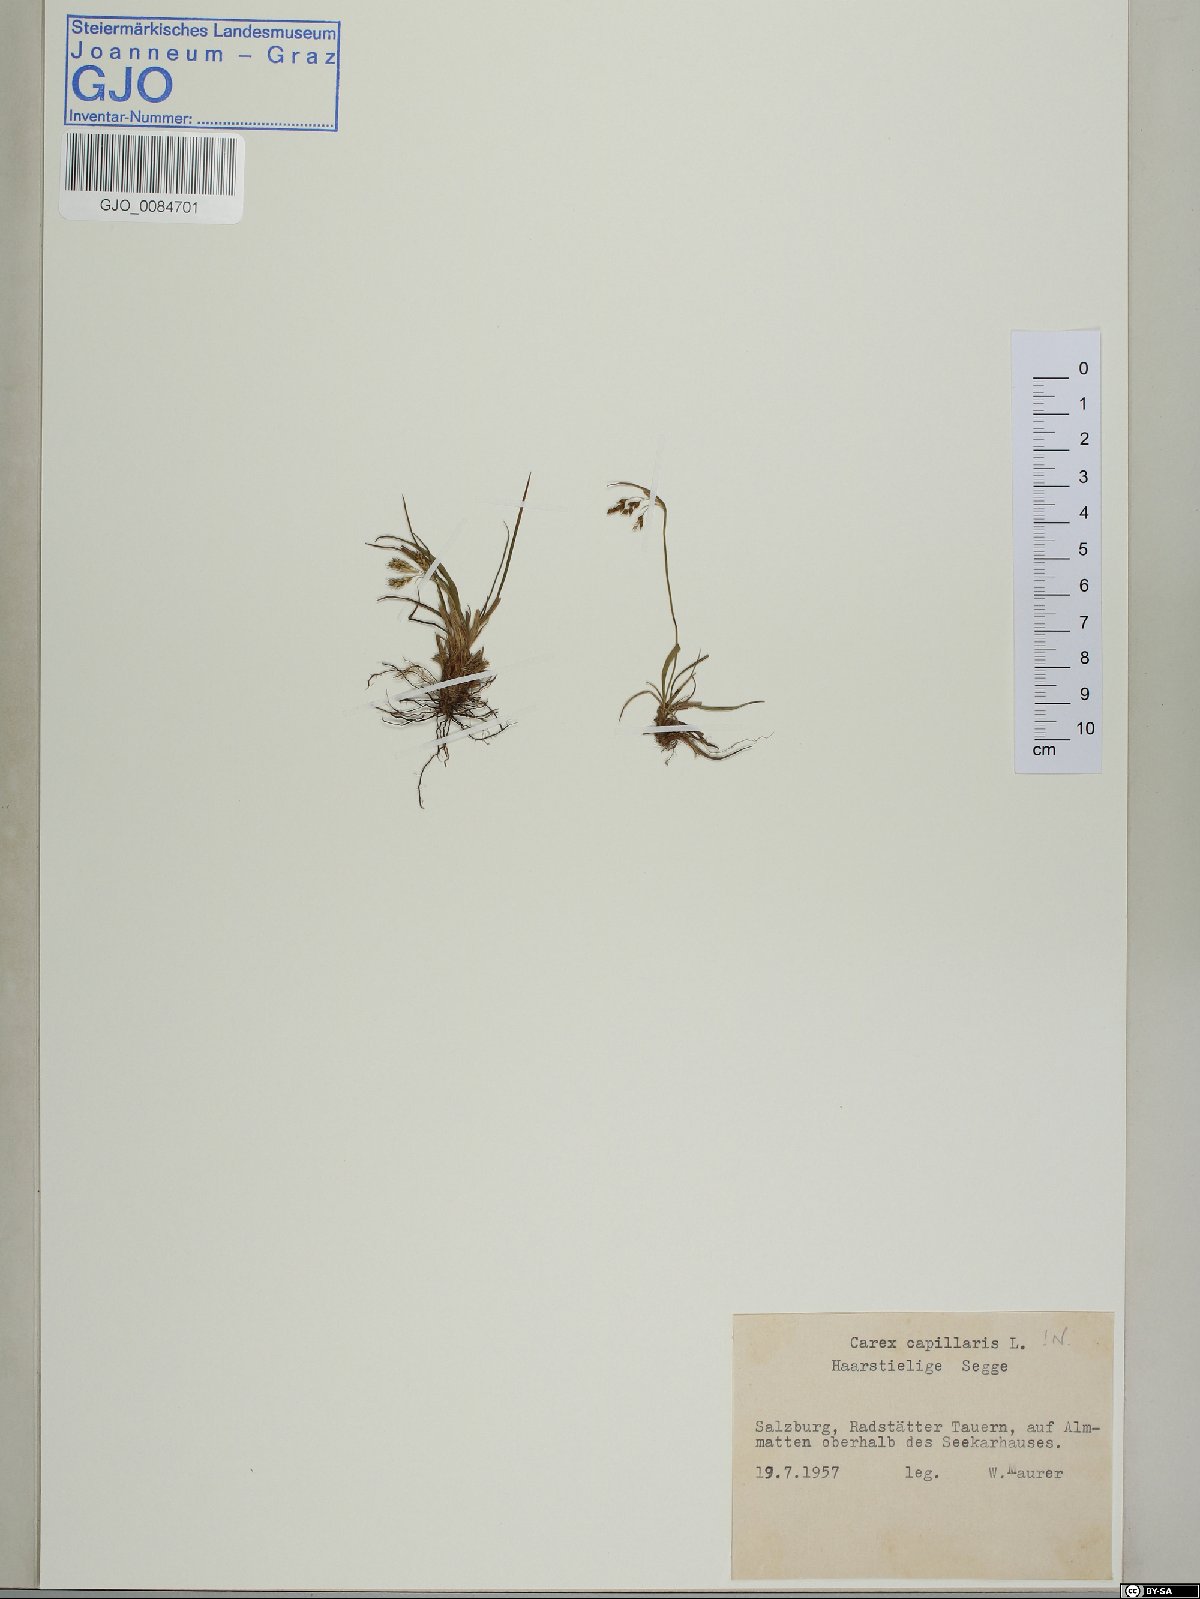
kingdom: Plantae
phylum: Tracheophyta
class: Liliopsida
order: Poales
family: Cyperaceae
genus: Carex
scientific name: Carex capillaris
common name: Hair sedge
